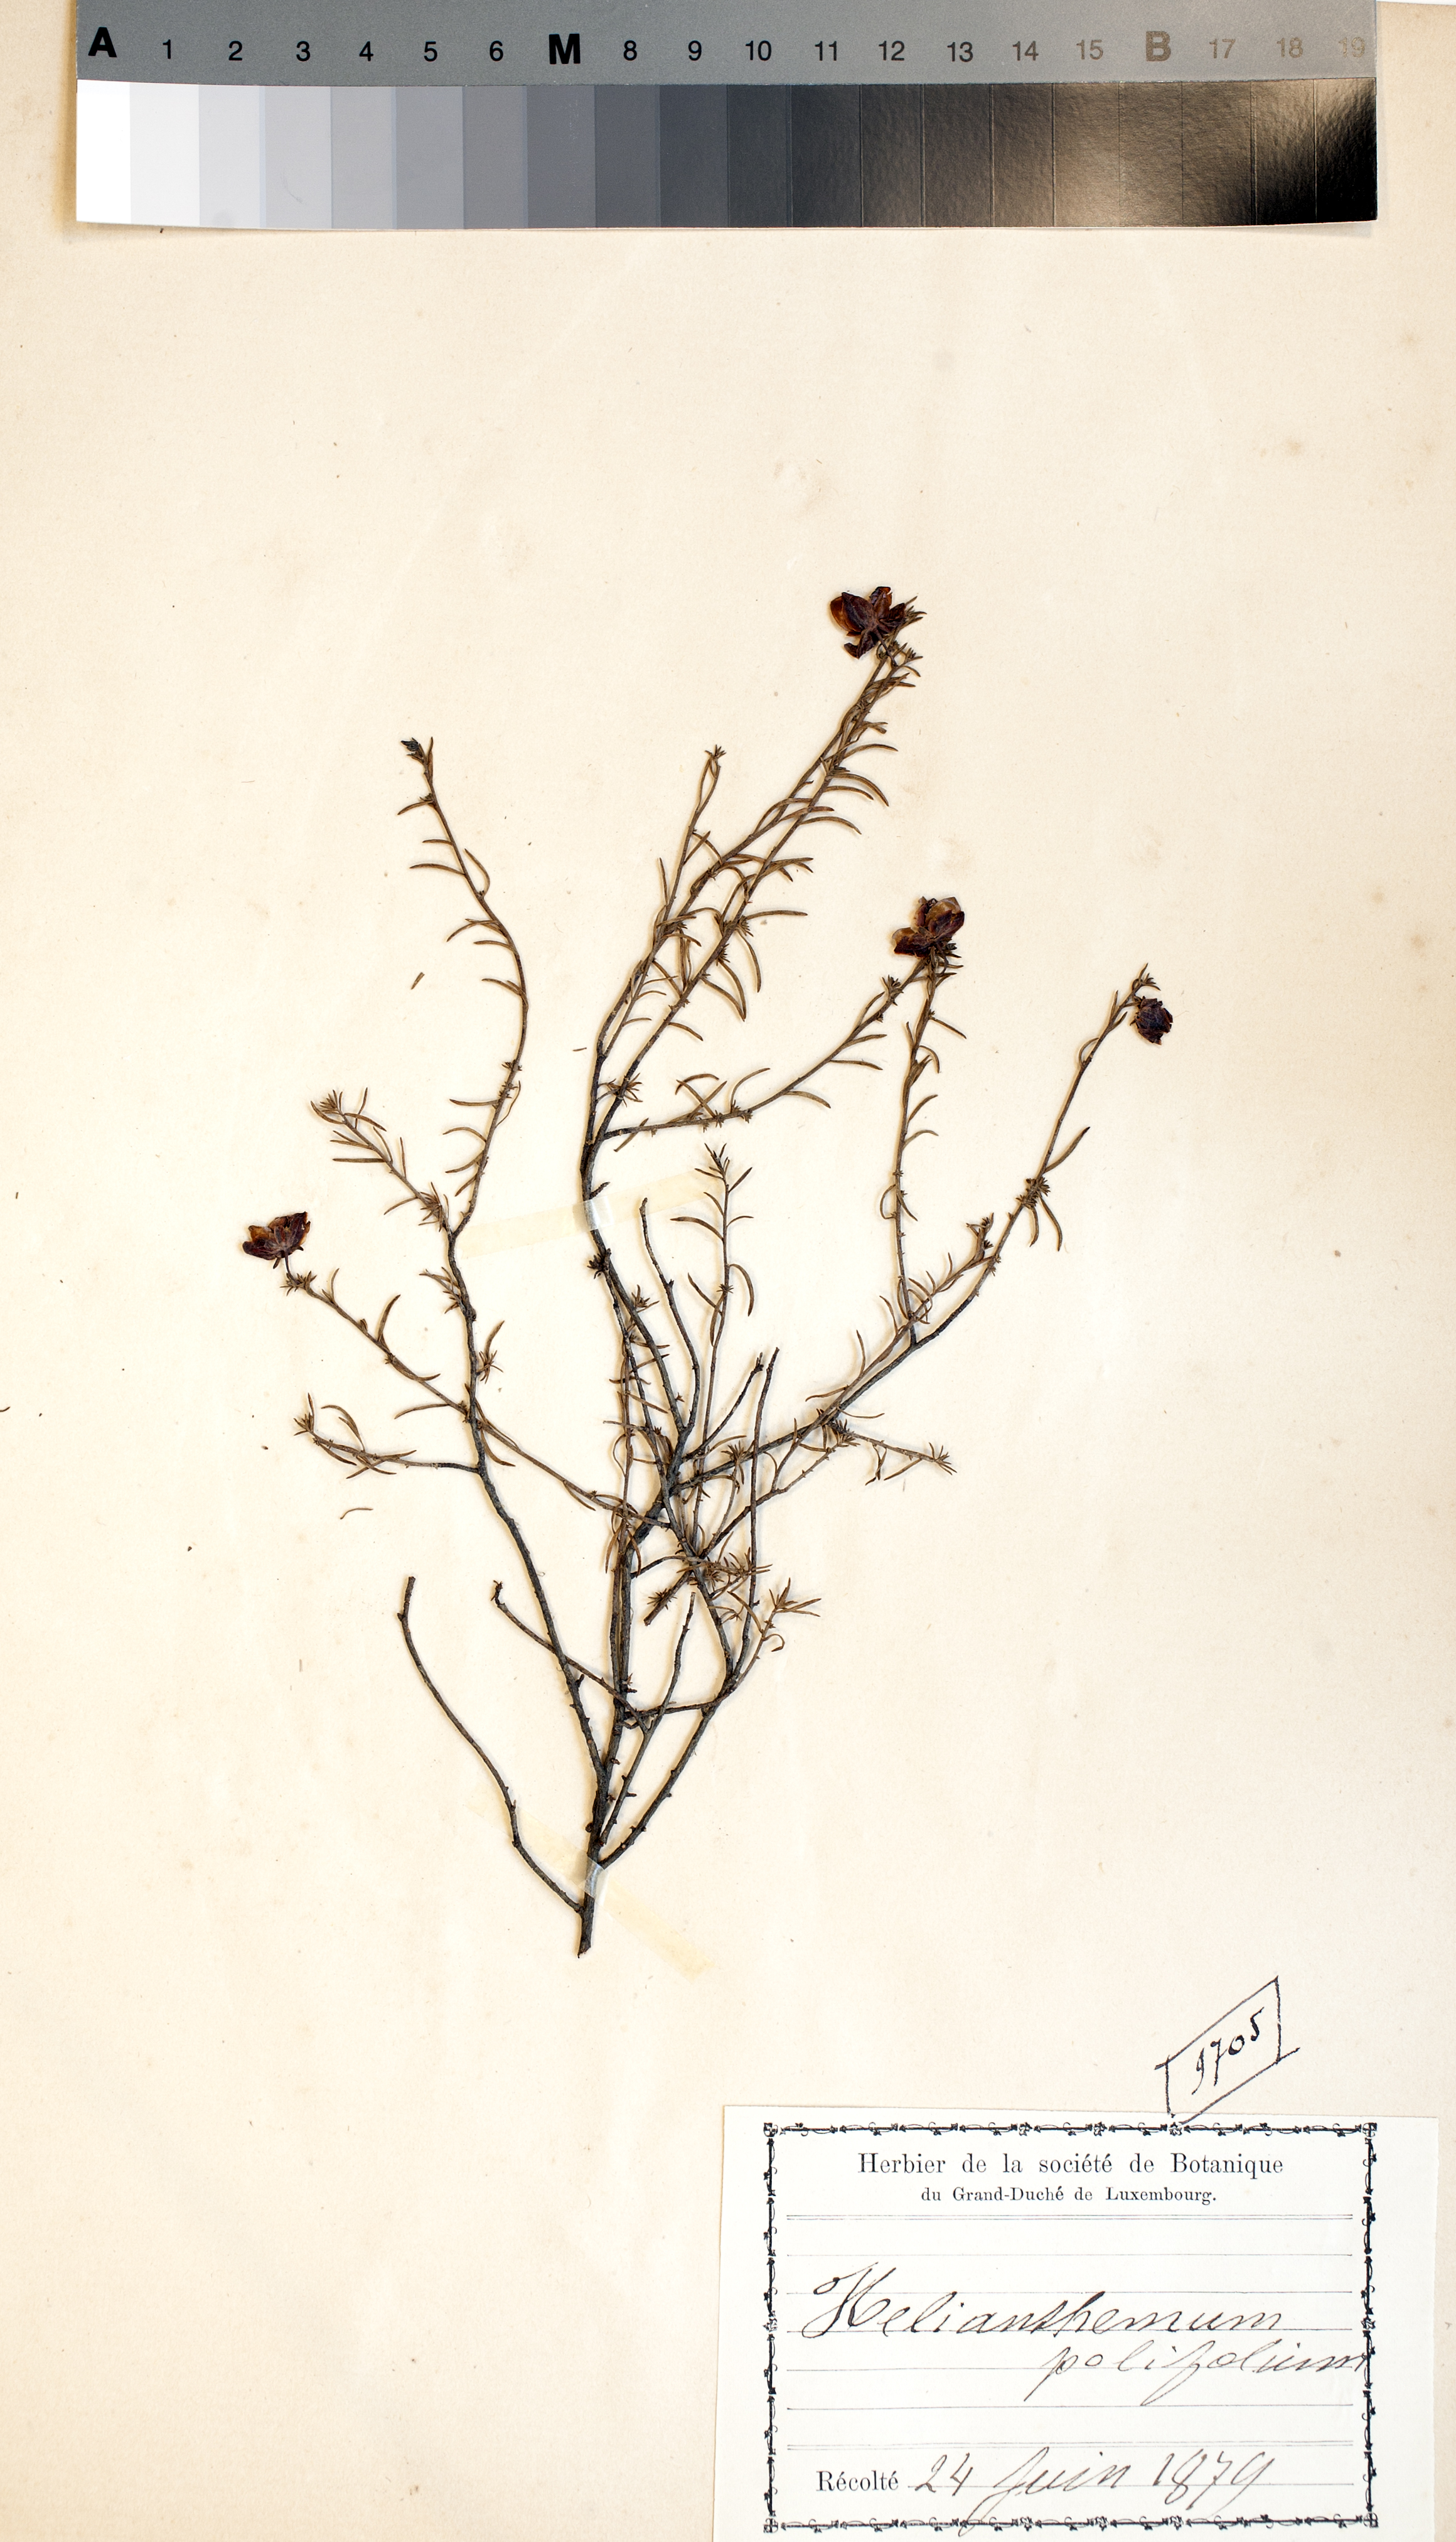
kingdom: Plantae
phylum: Tracheophyta
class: Magnoliopsida
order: Malvales
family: Cistaceae
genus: Helianthemum
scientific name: Helianthemum apenninum
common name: White rock-rose
